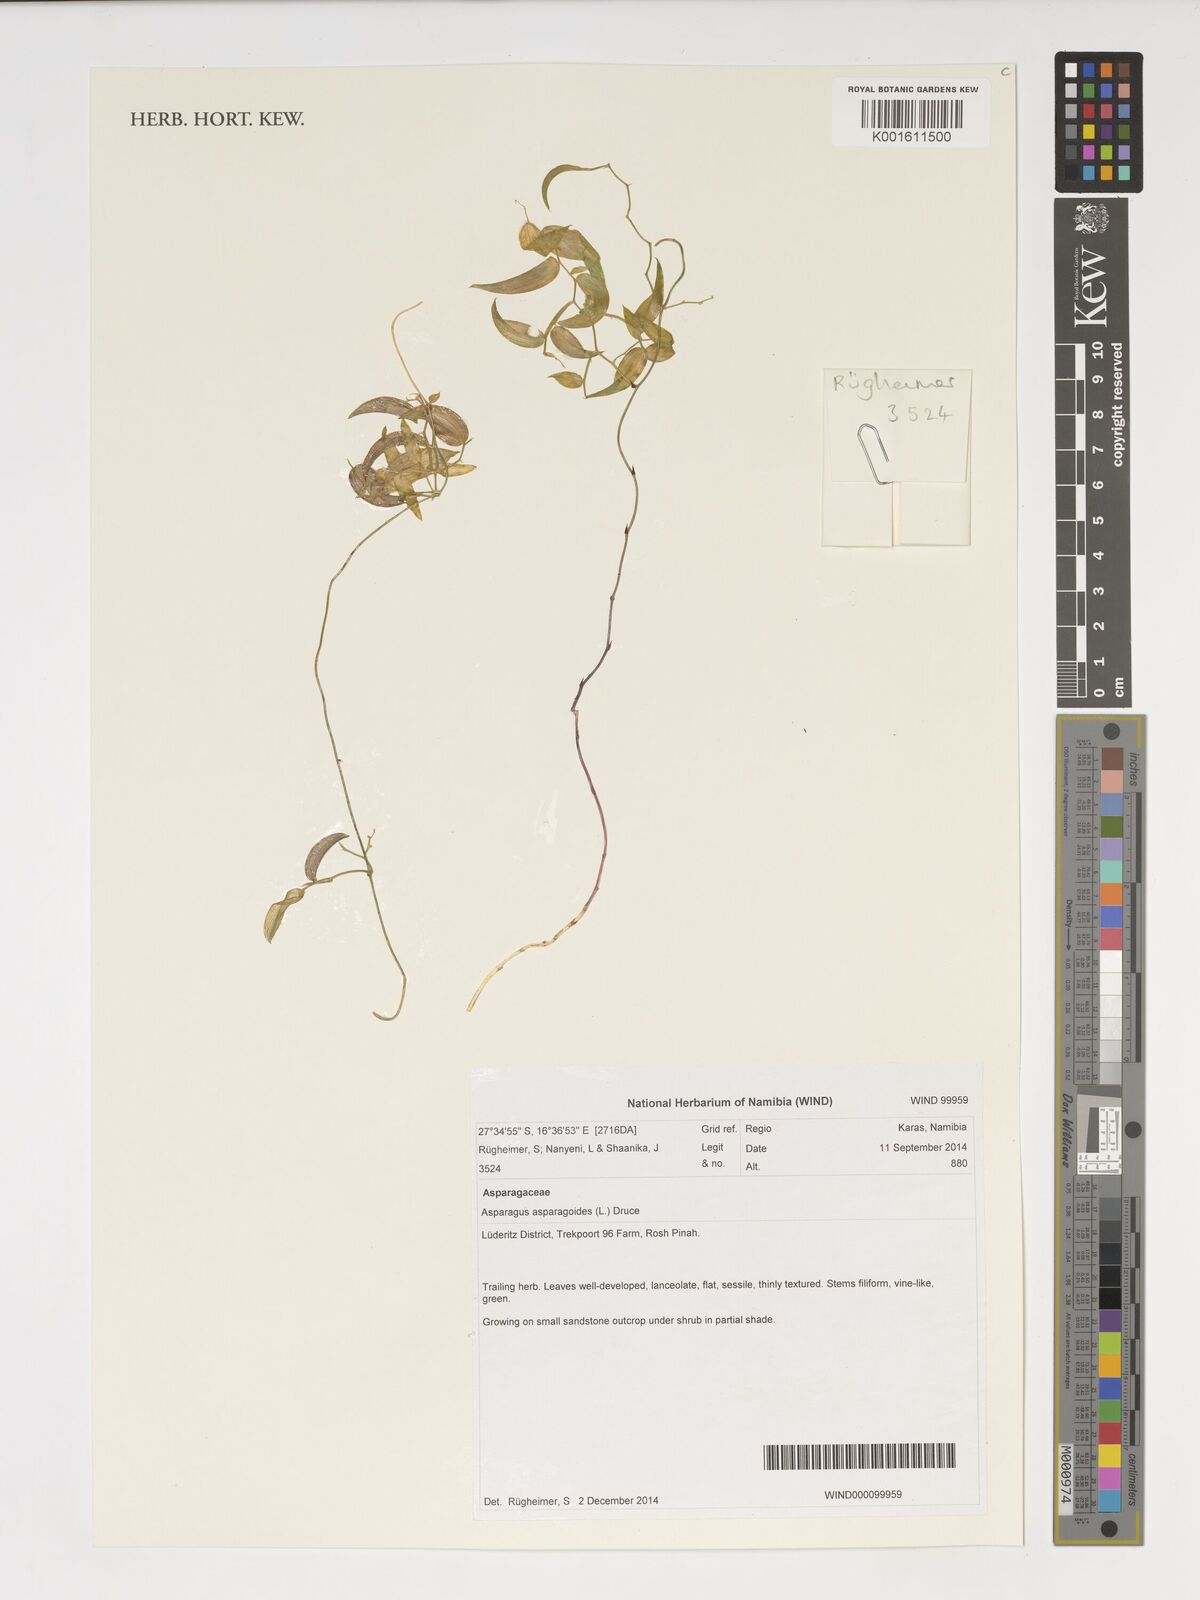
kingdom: Plantae
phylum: Tracheophyta
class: Liliopsida
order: Asparagales
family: Asparagaceae
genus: Asparagus
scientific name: Asparagus asparagoides
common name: African asparagus fern
